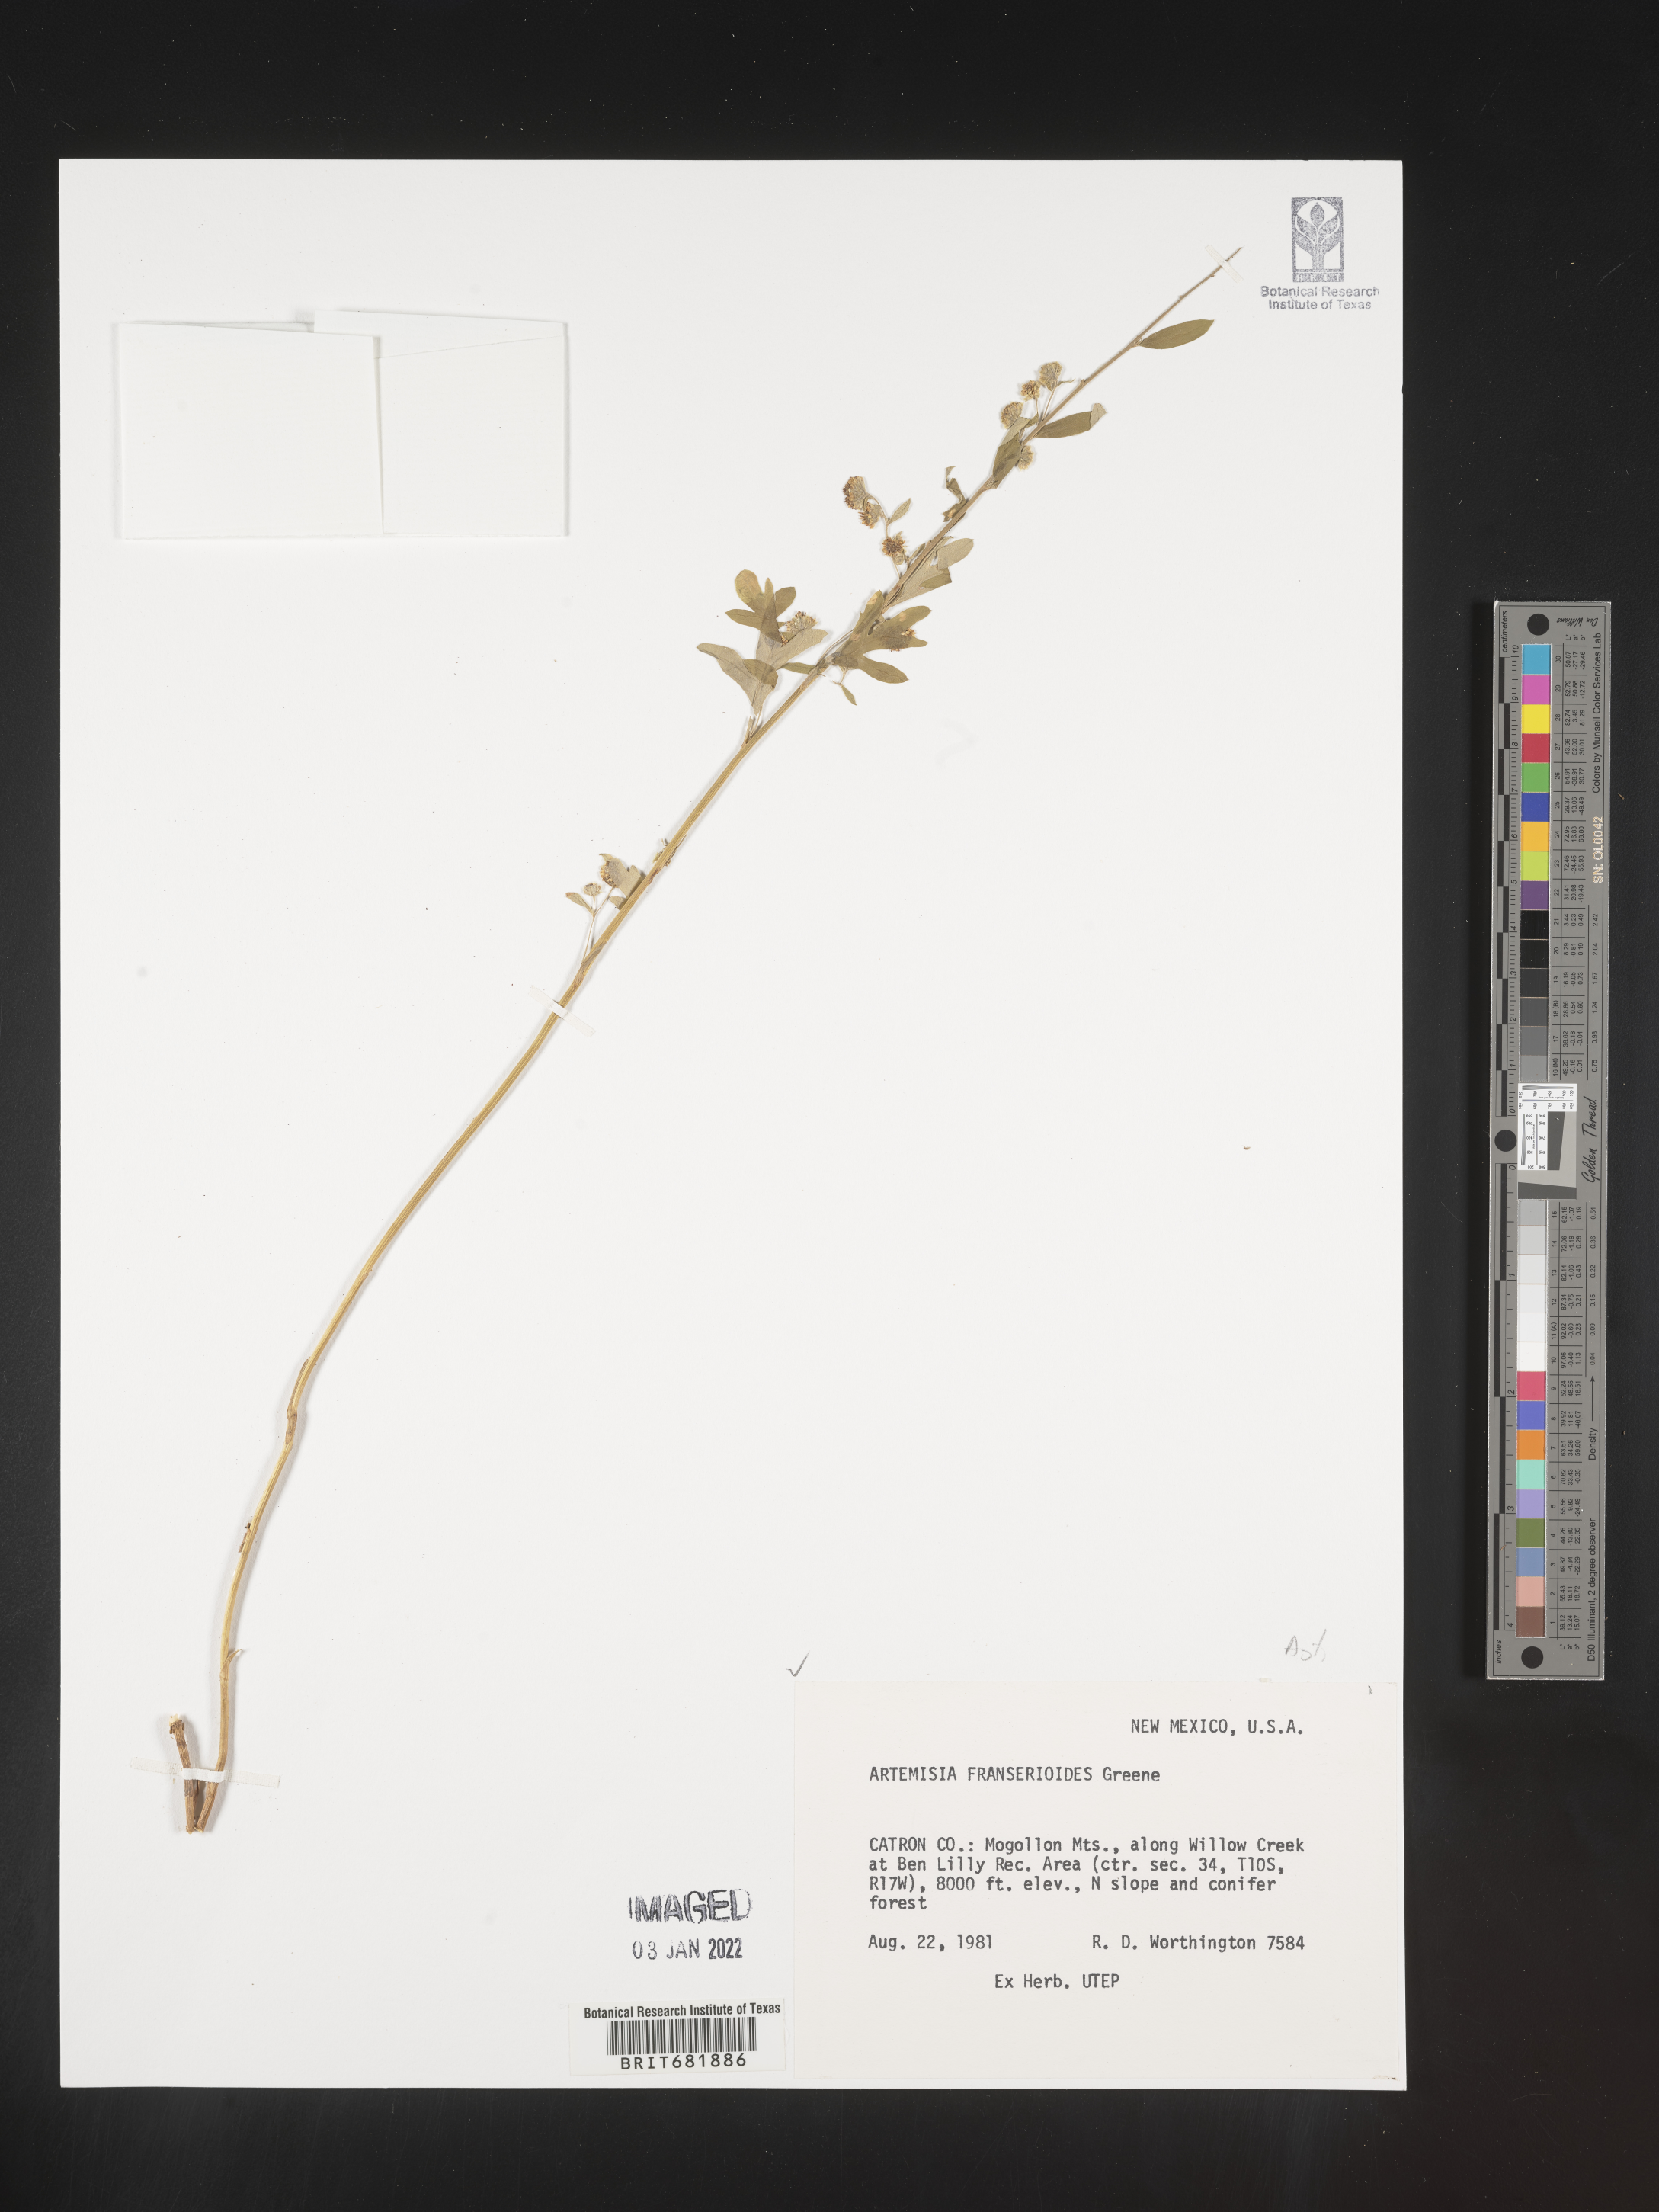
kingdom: Plantae
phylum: Tracheophyta
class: Magnoliopsida
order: Asterales
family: Asteraceae
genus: Artemisia
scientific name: Artemisia franserioides
